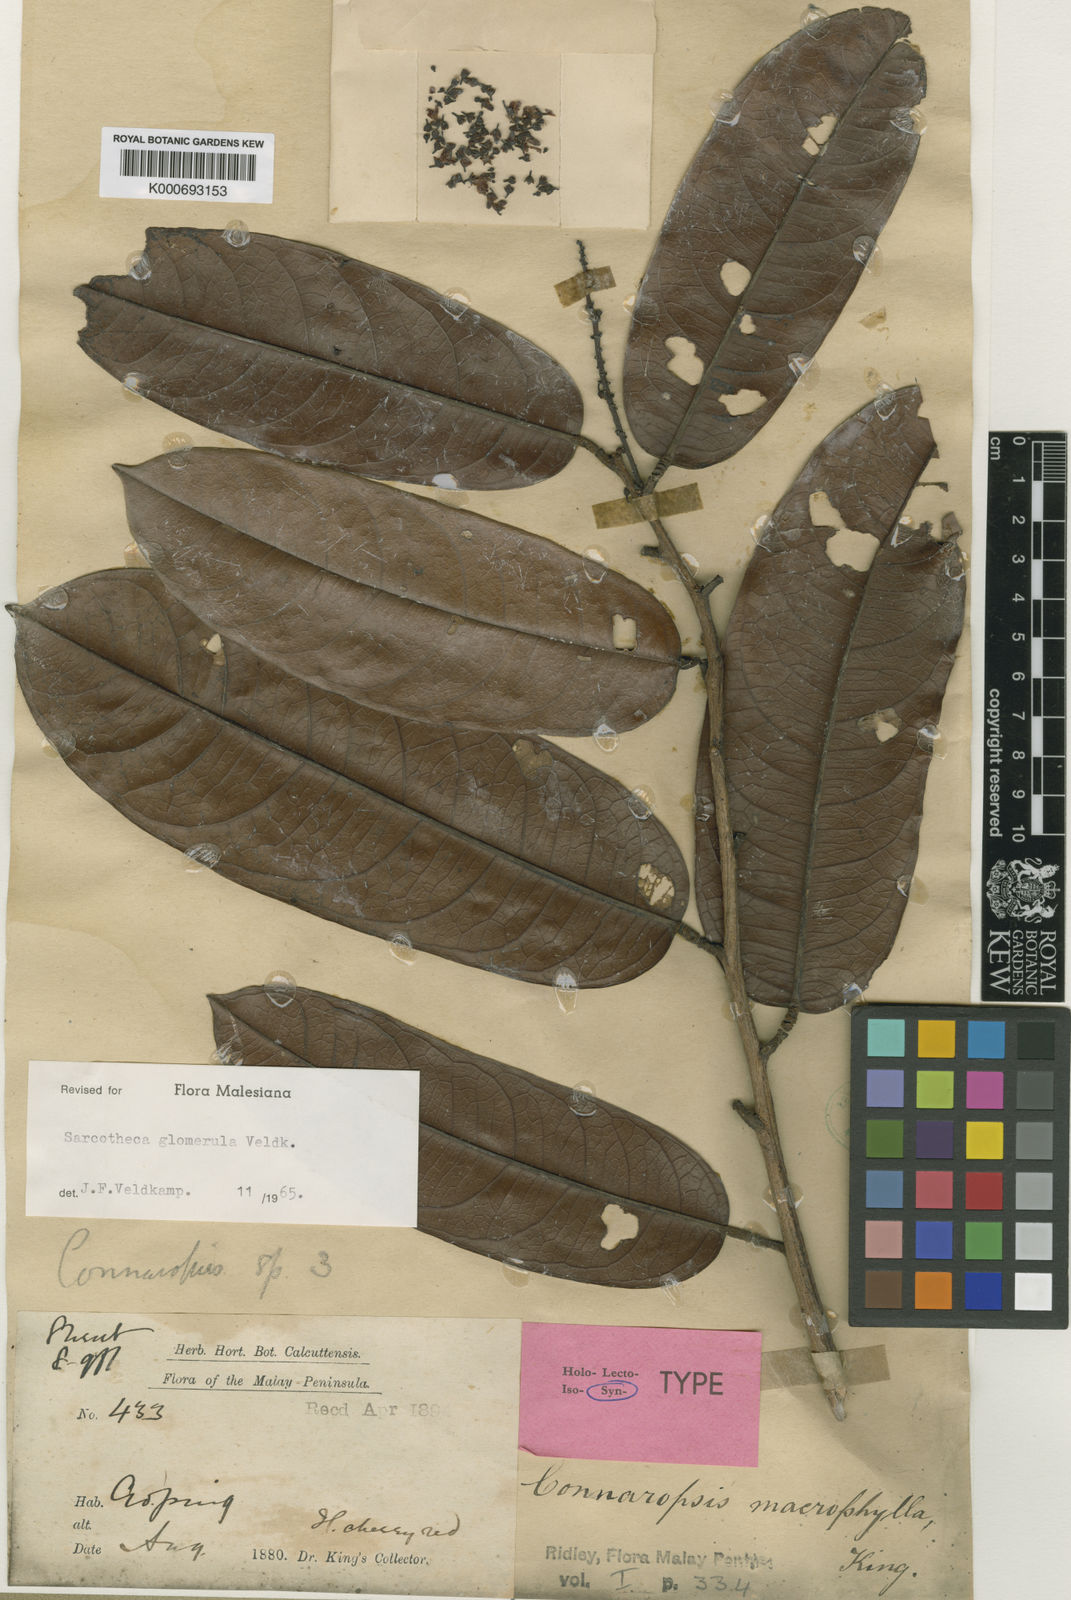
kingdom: Plantae
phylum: Tracheophyta
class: Magnoliopsida
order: Oxalidales
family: Oxalidaceae
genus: Sarcotheca
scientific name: Sarcotheca glomerula
